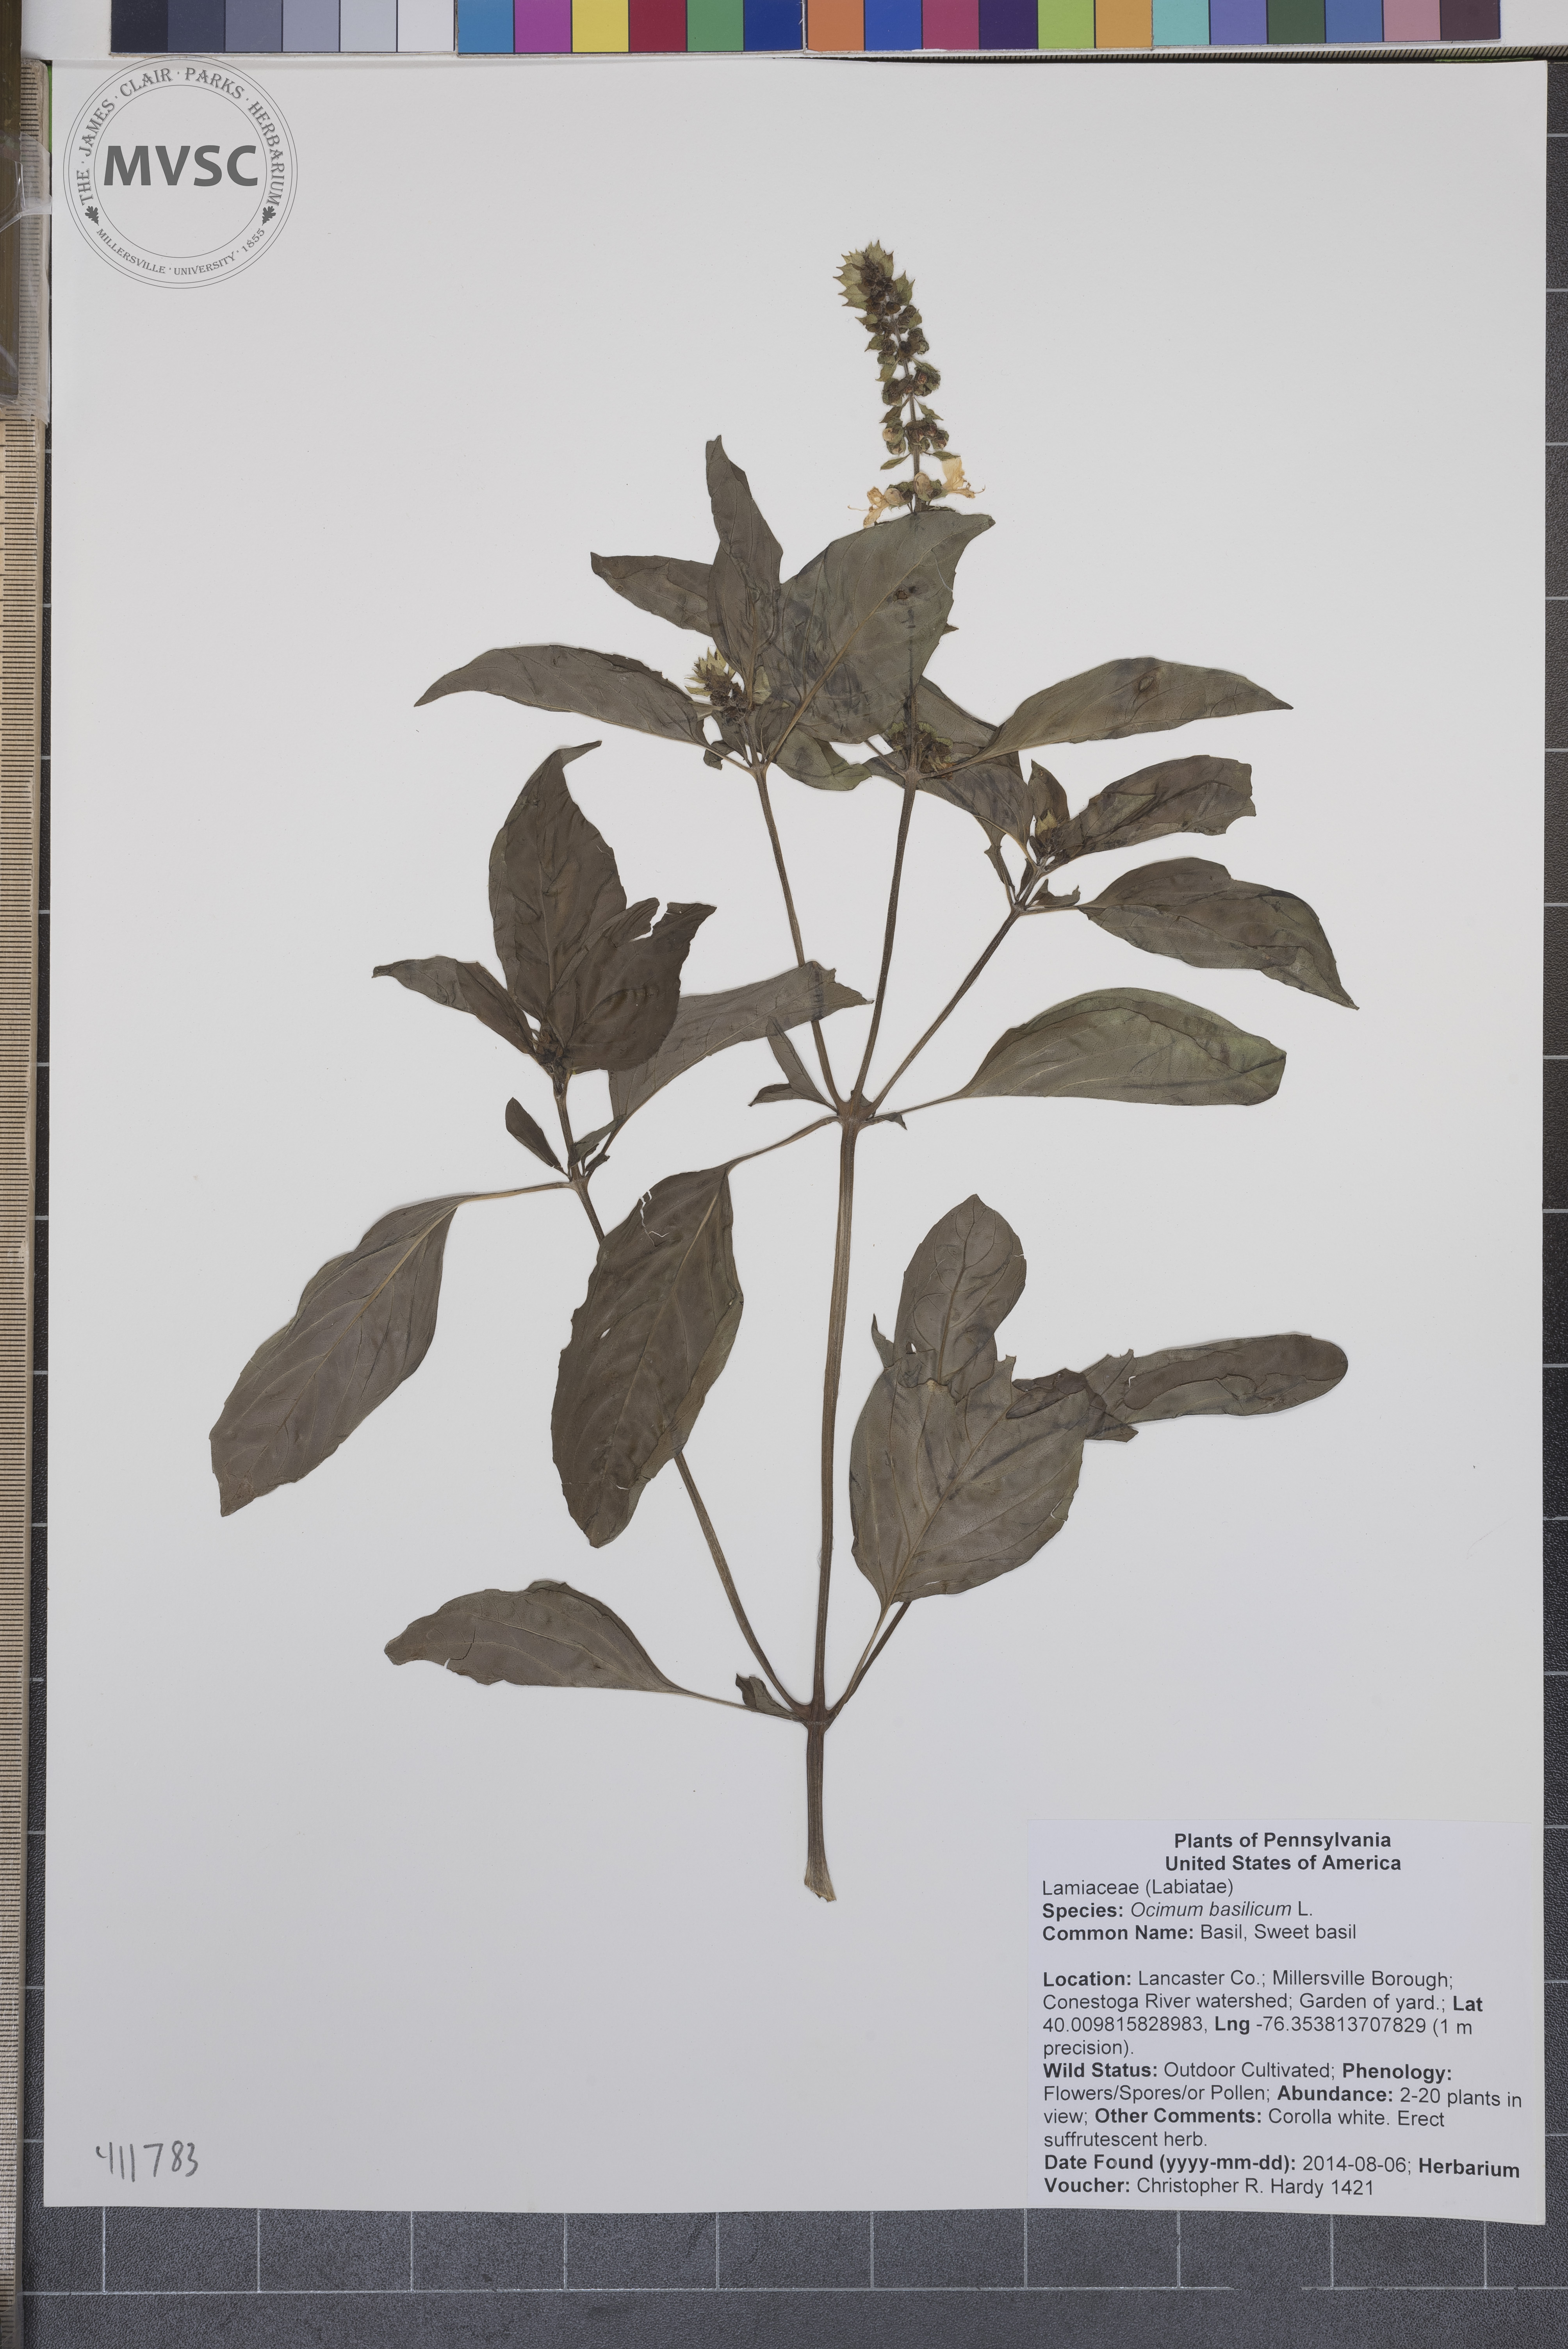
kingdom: Plantae
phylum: Tracheophyta
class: Magnoliopsida
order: Lamiales
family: Lamiaceae
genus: Ocimum
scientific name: Ocimum basilicum
